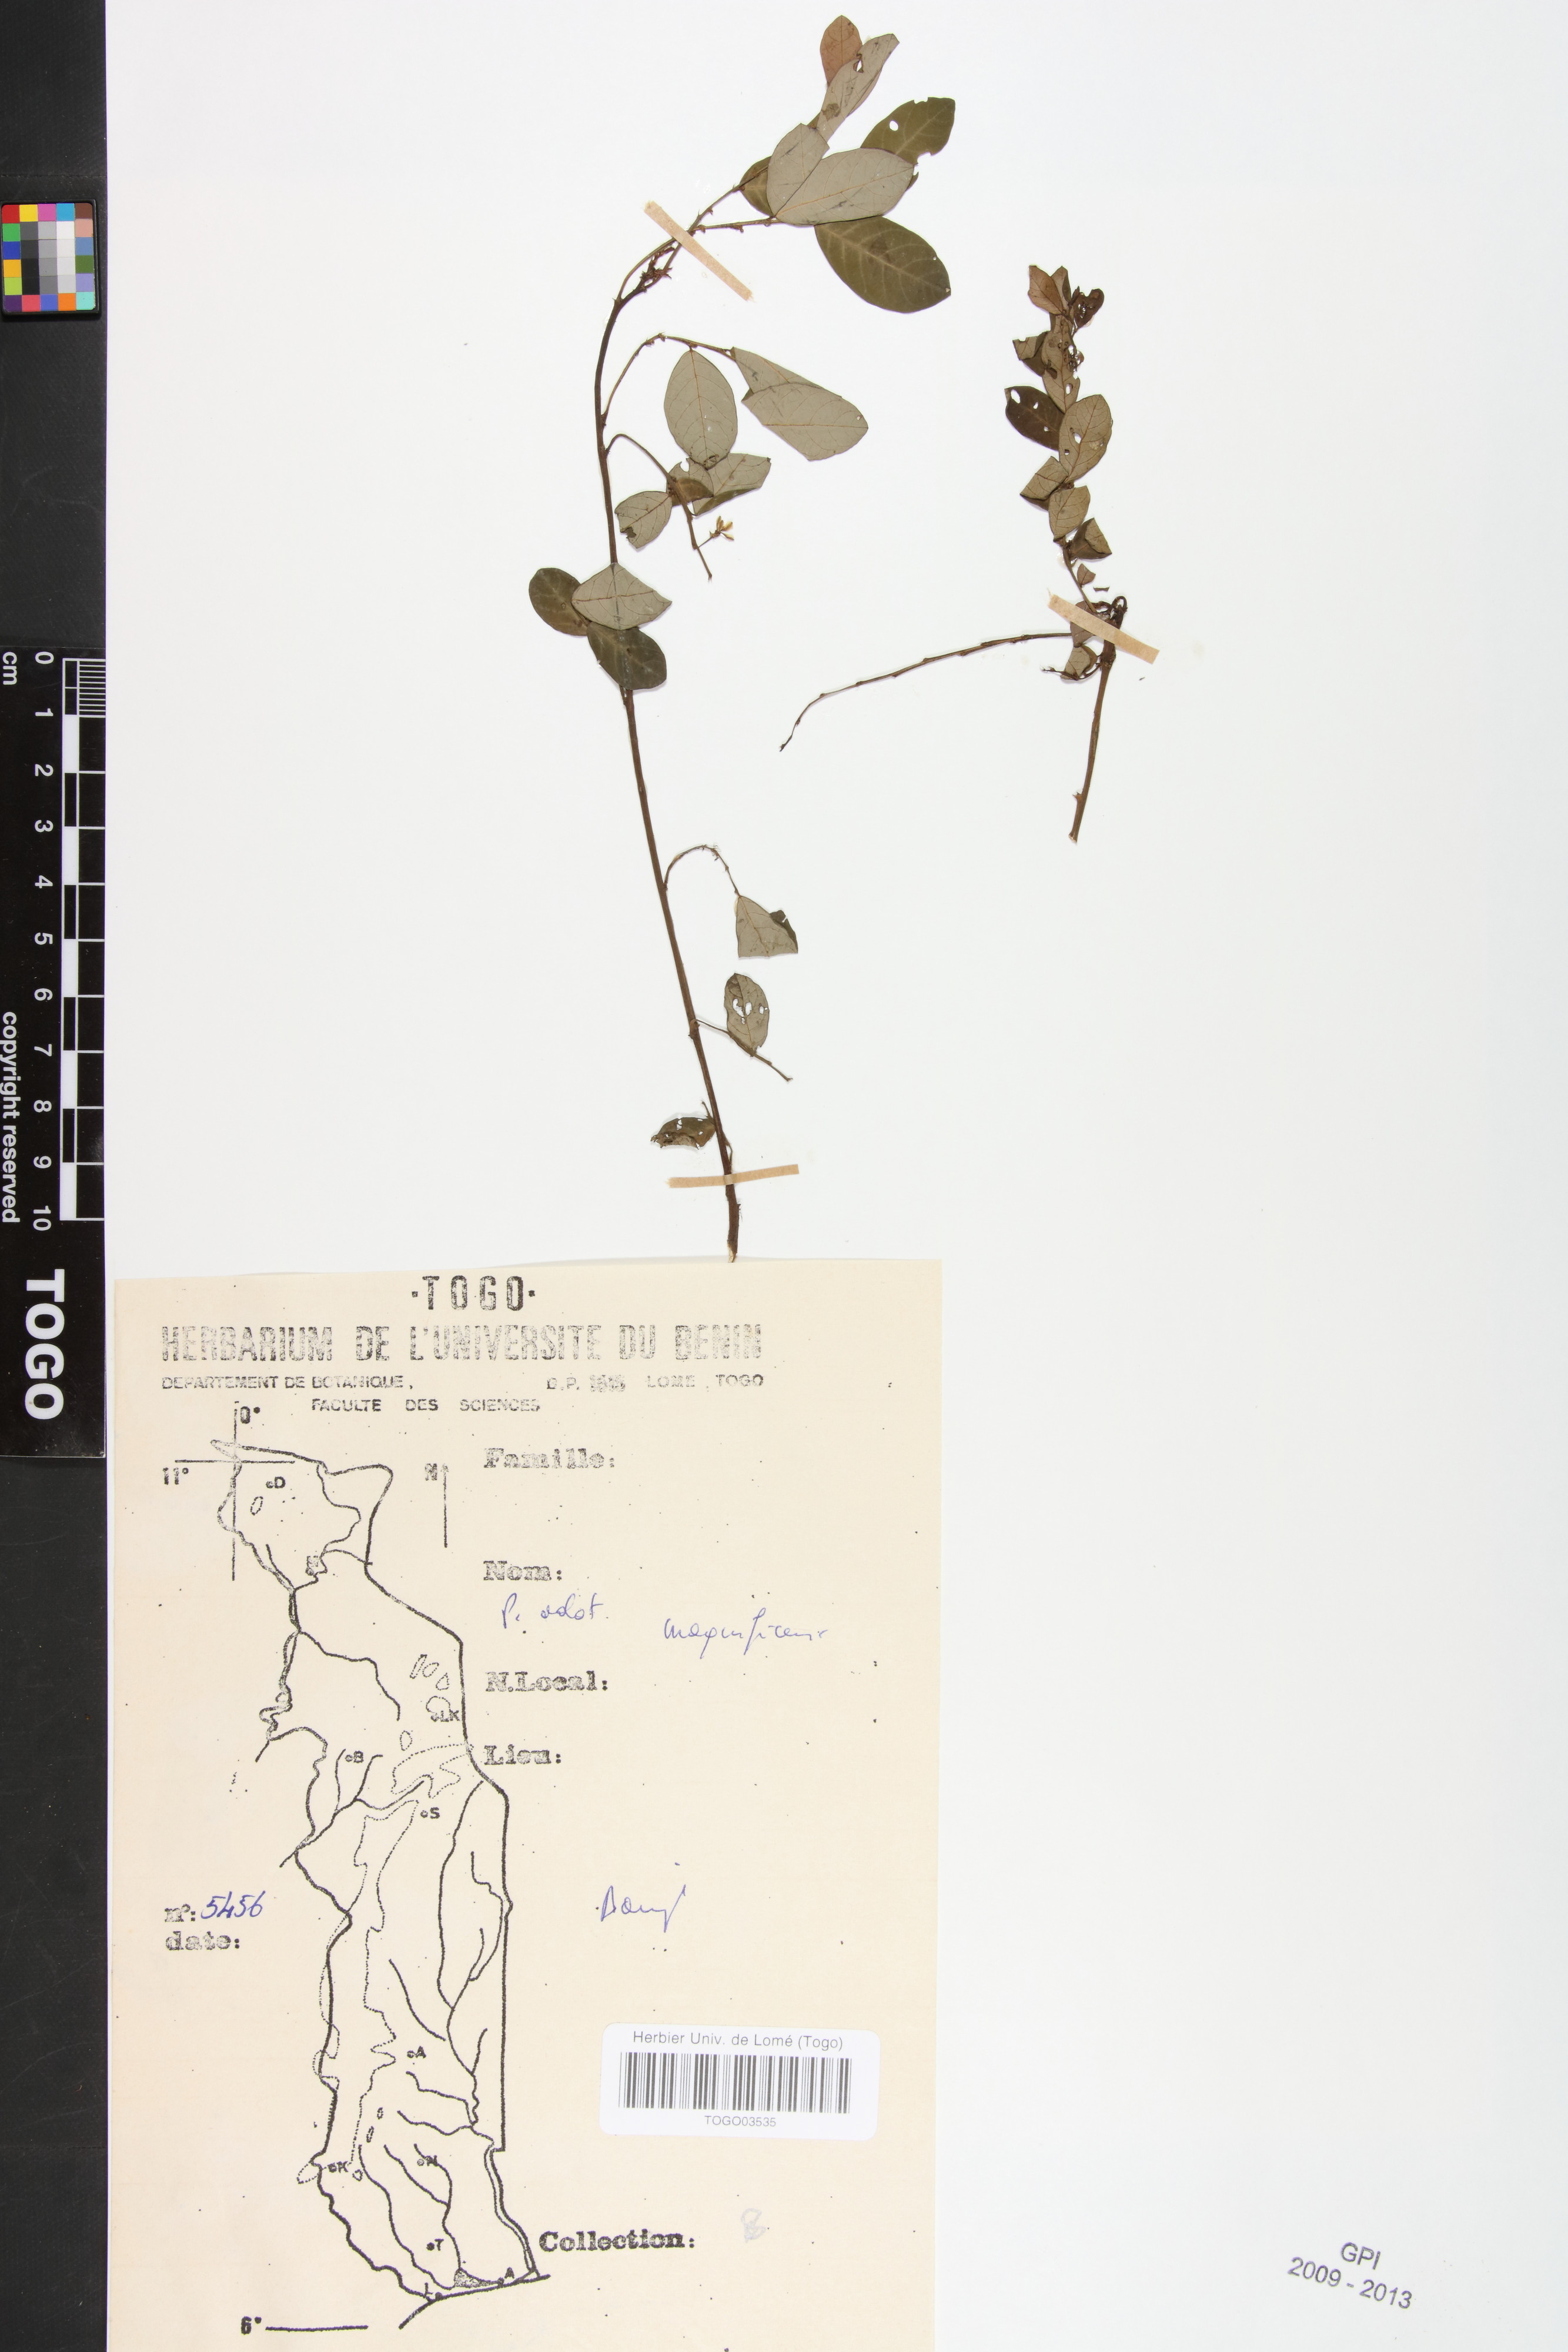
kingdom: Plantae
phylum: Tracheophyta
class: Magnoliopsida
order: Malpighiales
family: Phyllanthaceae
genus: Phyllanthus
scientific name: Phyllanthus magnificens
